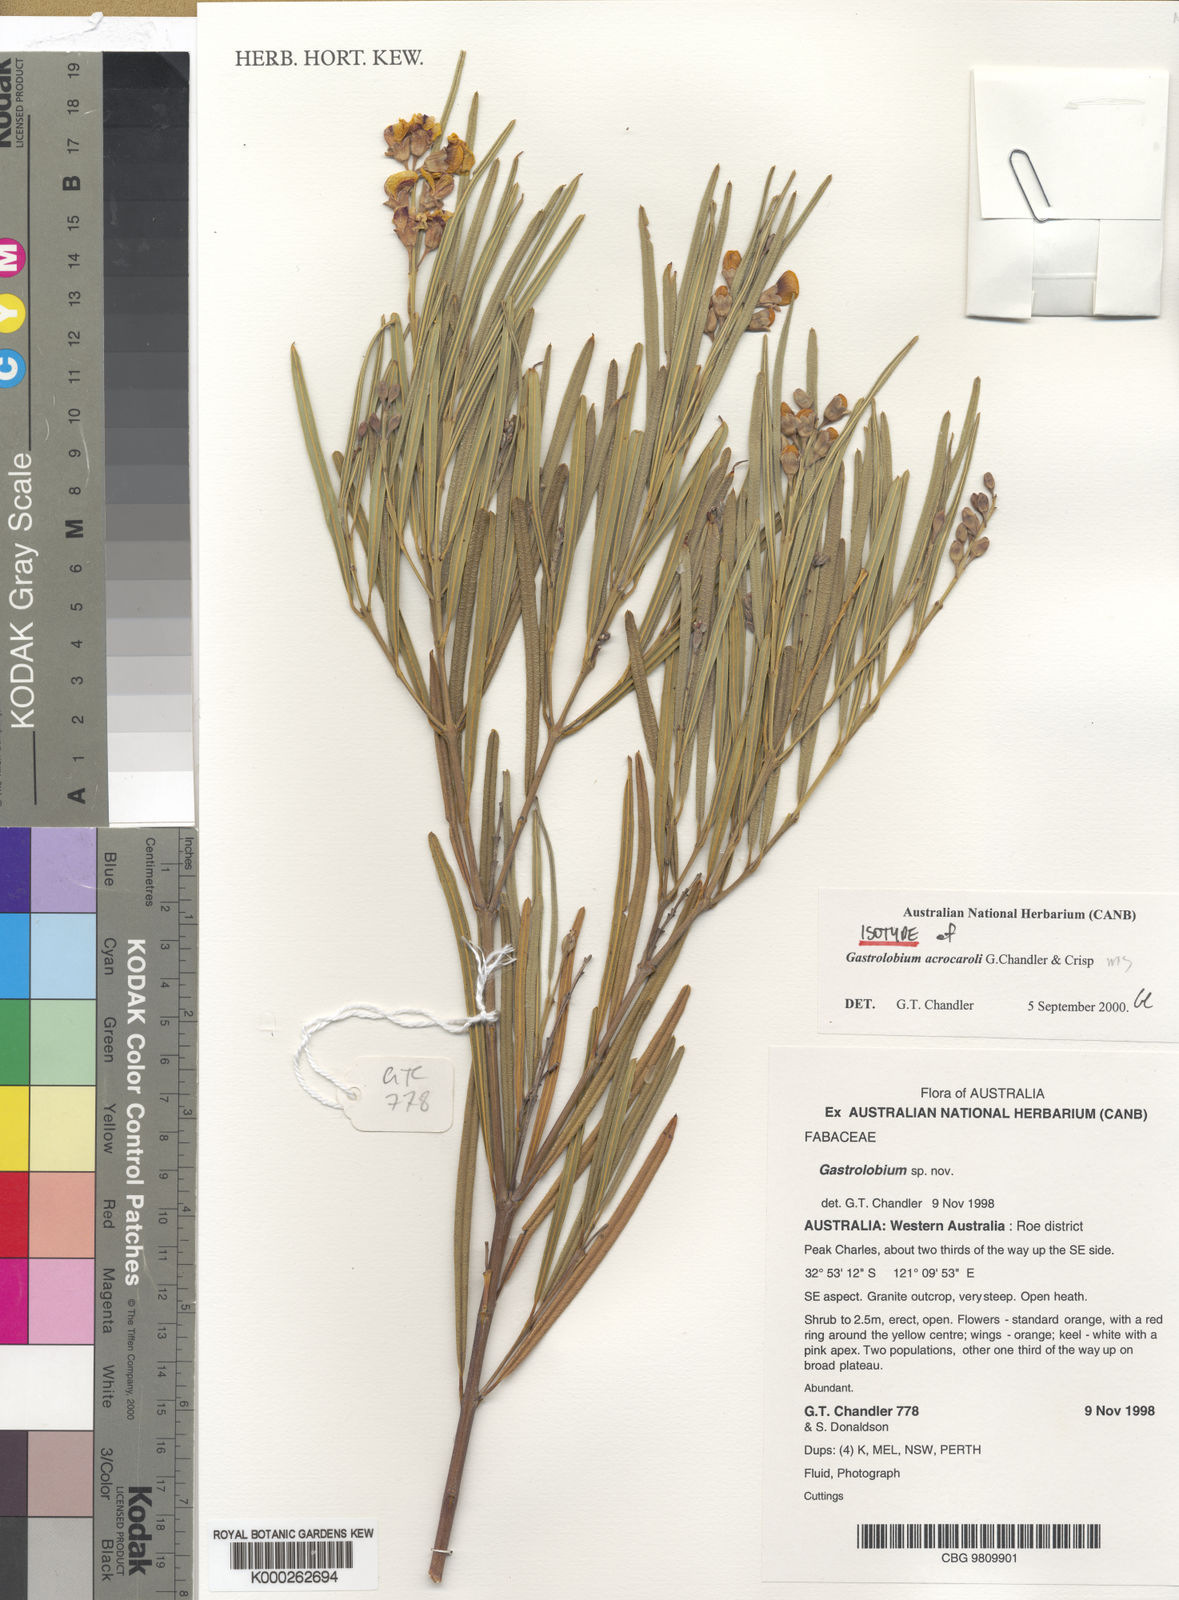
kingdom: Plantae
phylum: Tracheophyta
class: Magnoliopsida
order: Fabales
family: Fabaceae
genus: Gastrolobium
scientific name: Gastrolobium acrocaroli
